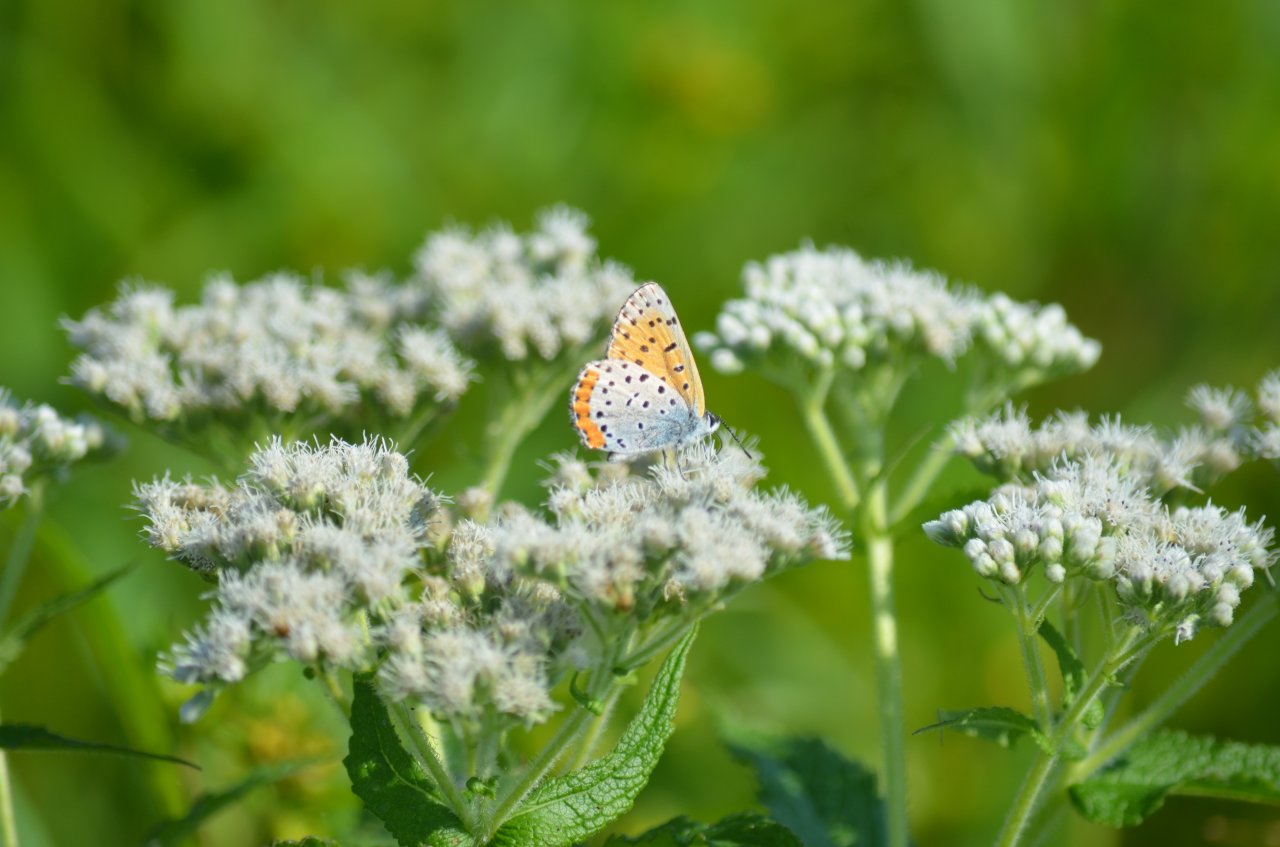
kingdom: Animalia
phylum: Arthropoda
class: Insecta
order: Lepidoptera
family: Sesiidae
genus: Sesia
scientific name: Sesia Lycaena hyllus
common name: Bronze Copper
